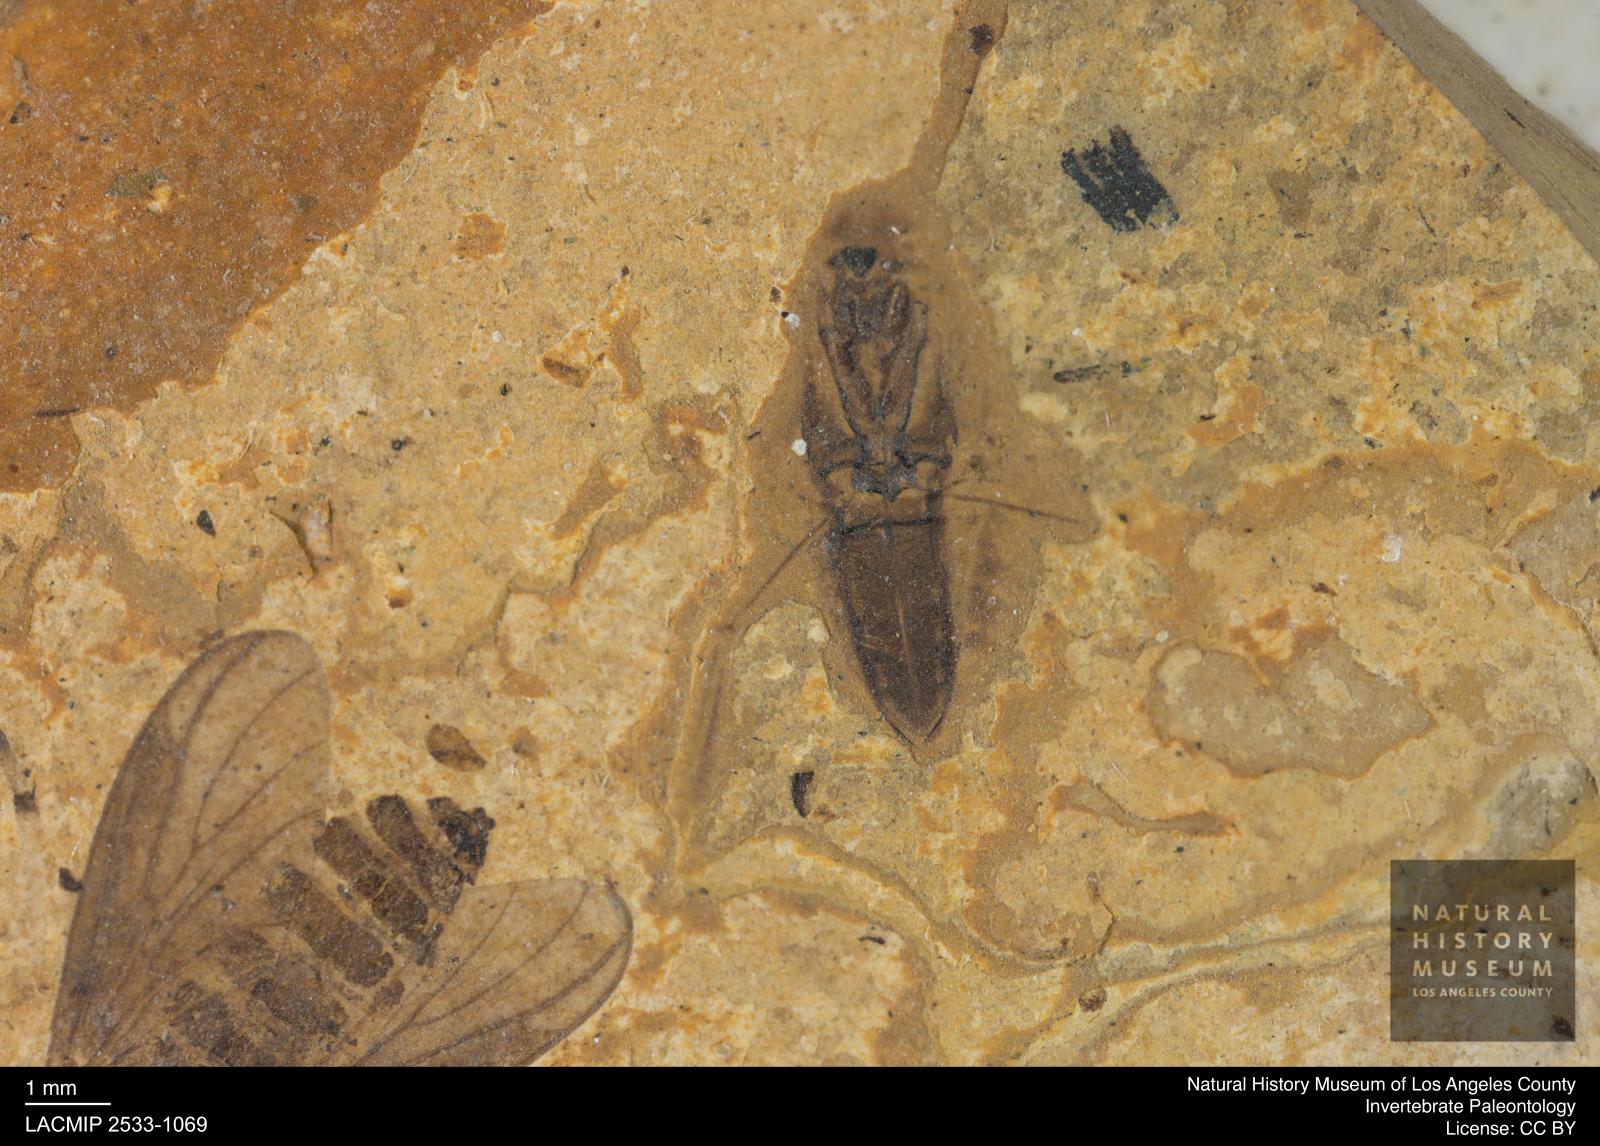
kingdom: Animalia
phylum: Arthropoda
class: Insecta
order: Hemiptera
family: Notonectidae
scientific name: Notonectidae
